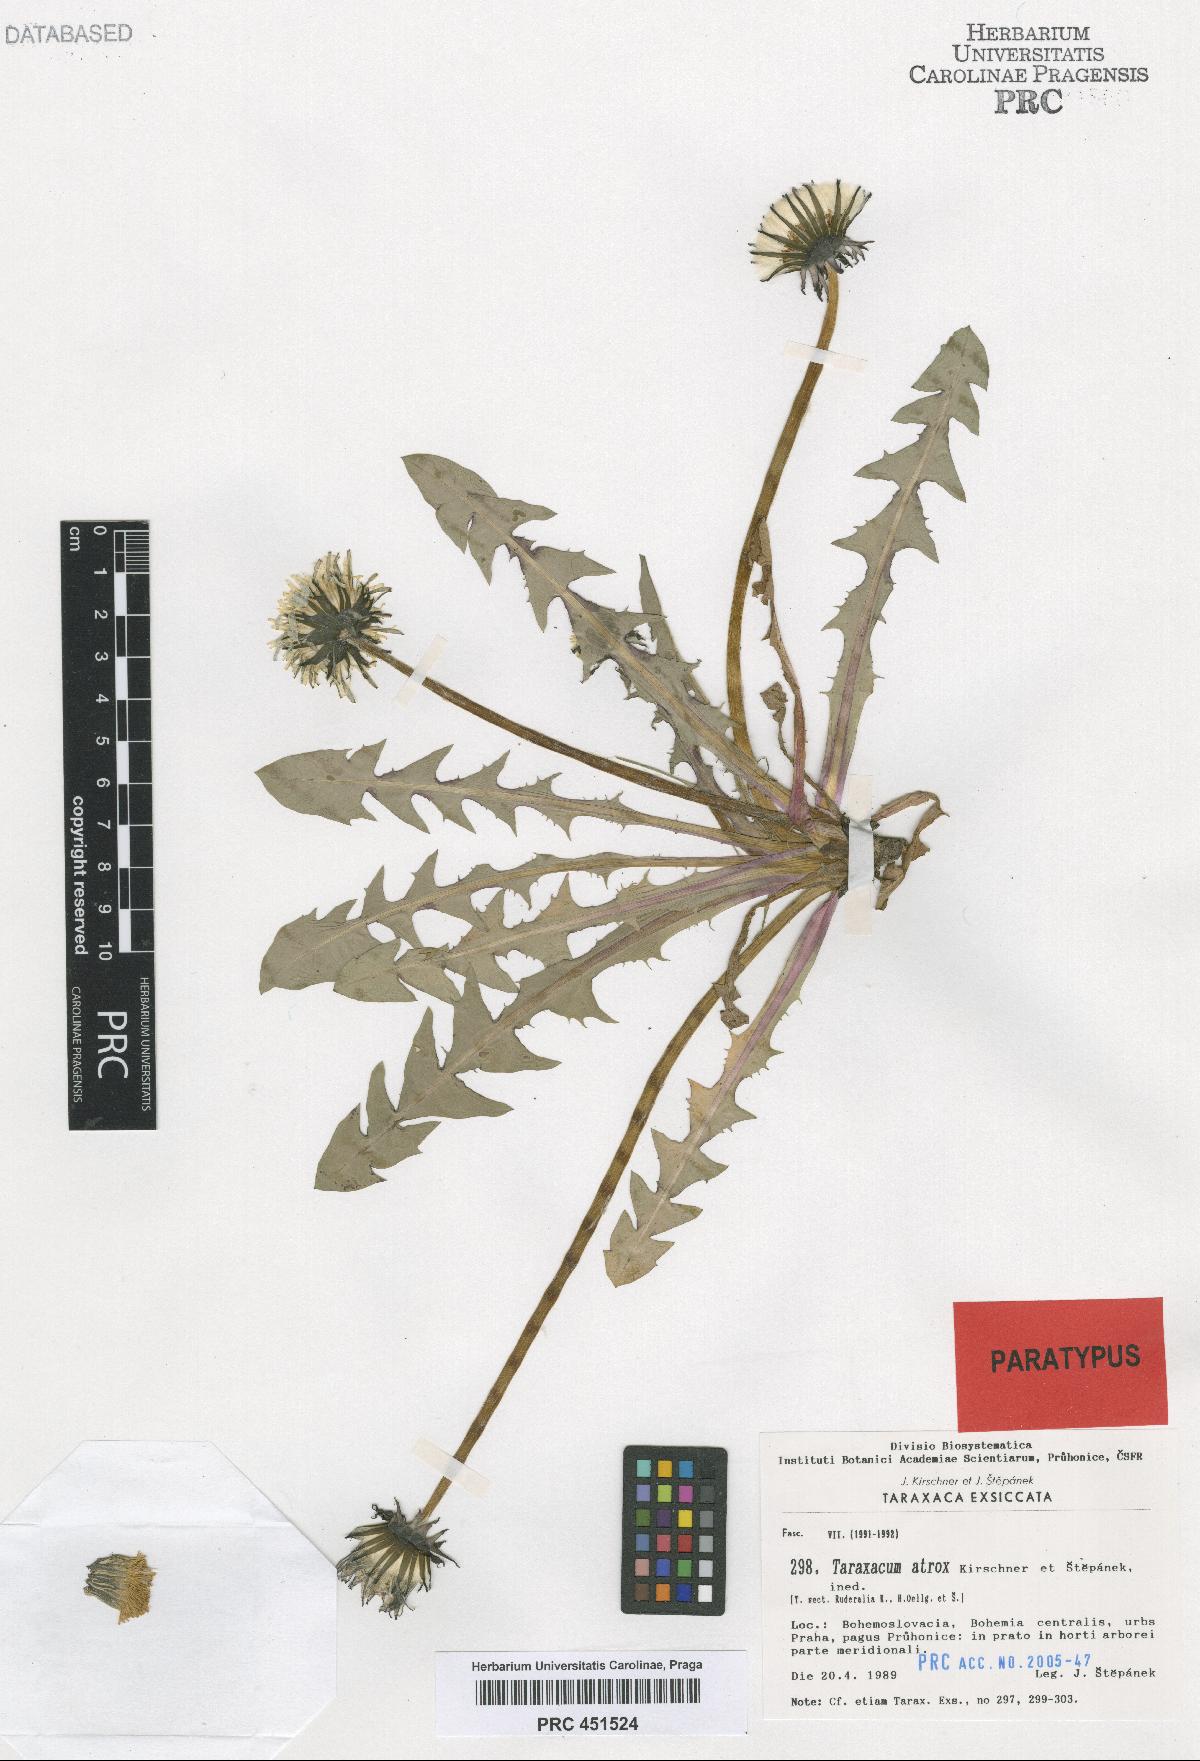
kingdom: Plantae
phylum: Tracheophyta
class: Magnoliopsida
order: Asterales
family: Asteraceae
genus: Taraxacum
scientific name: Taraxacum atrox
